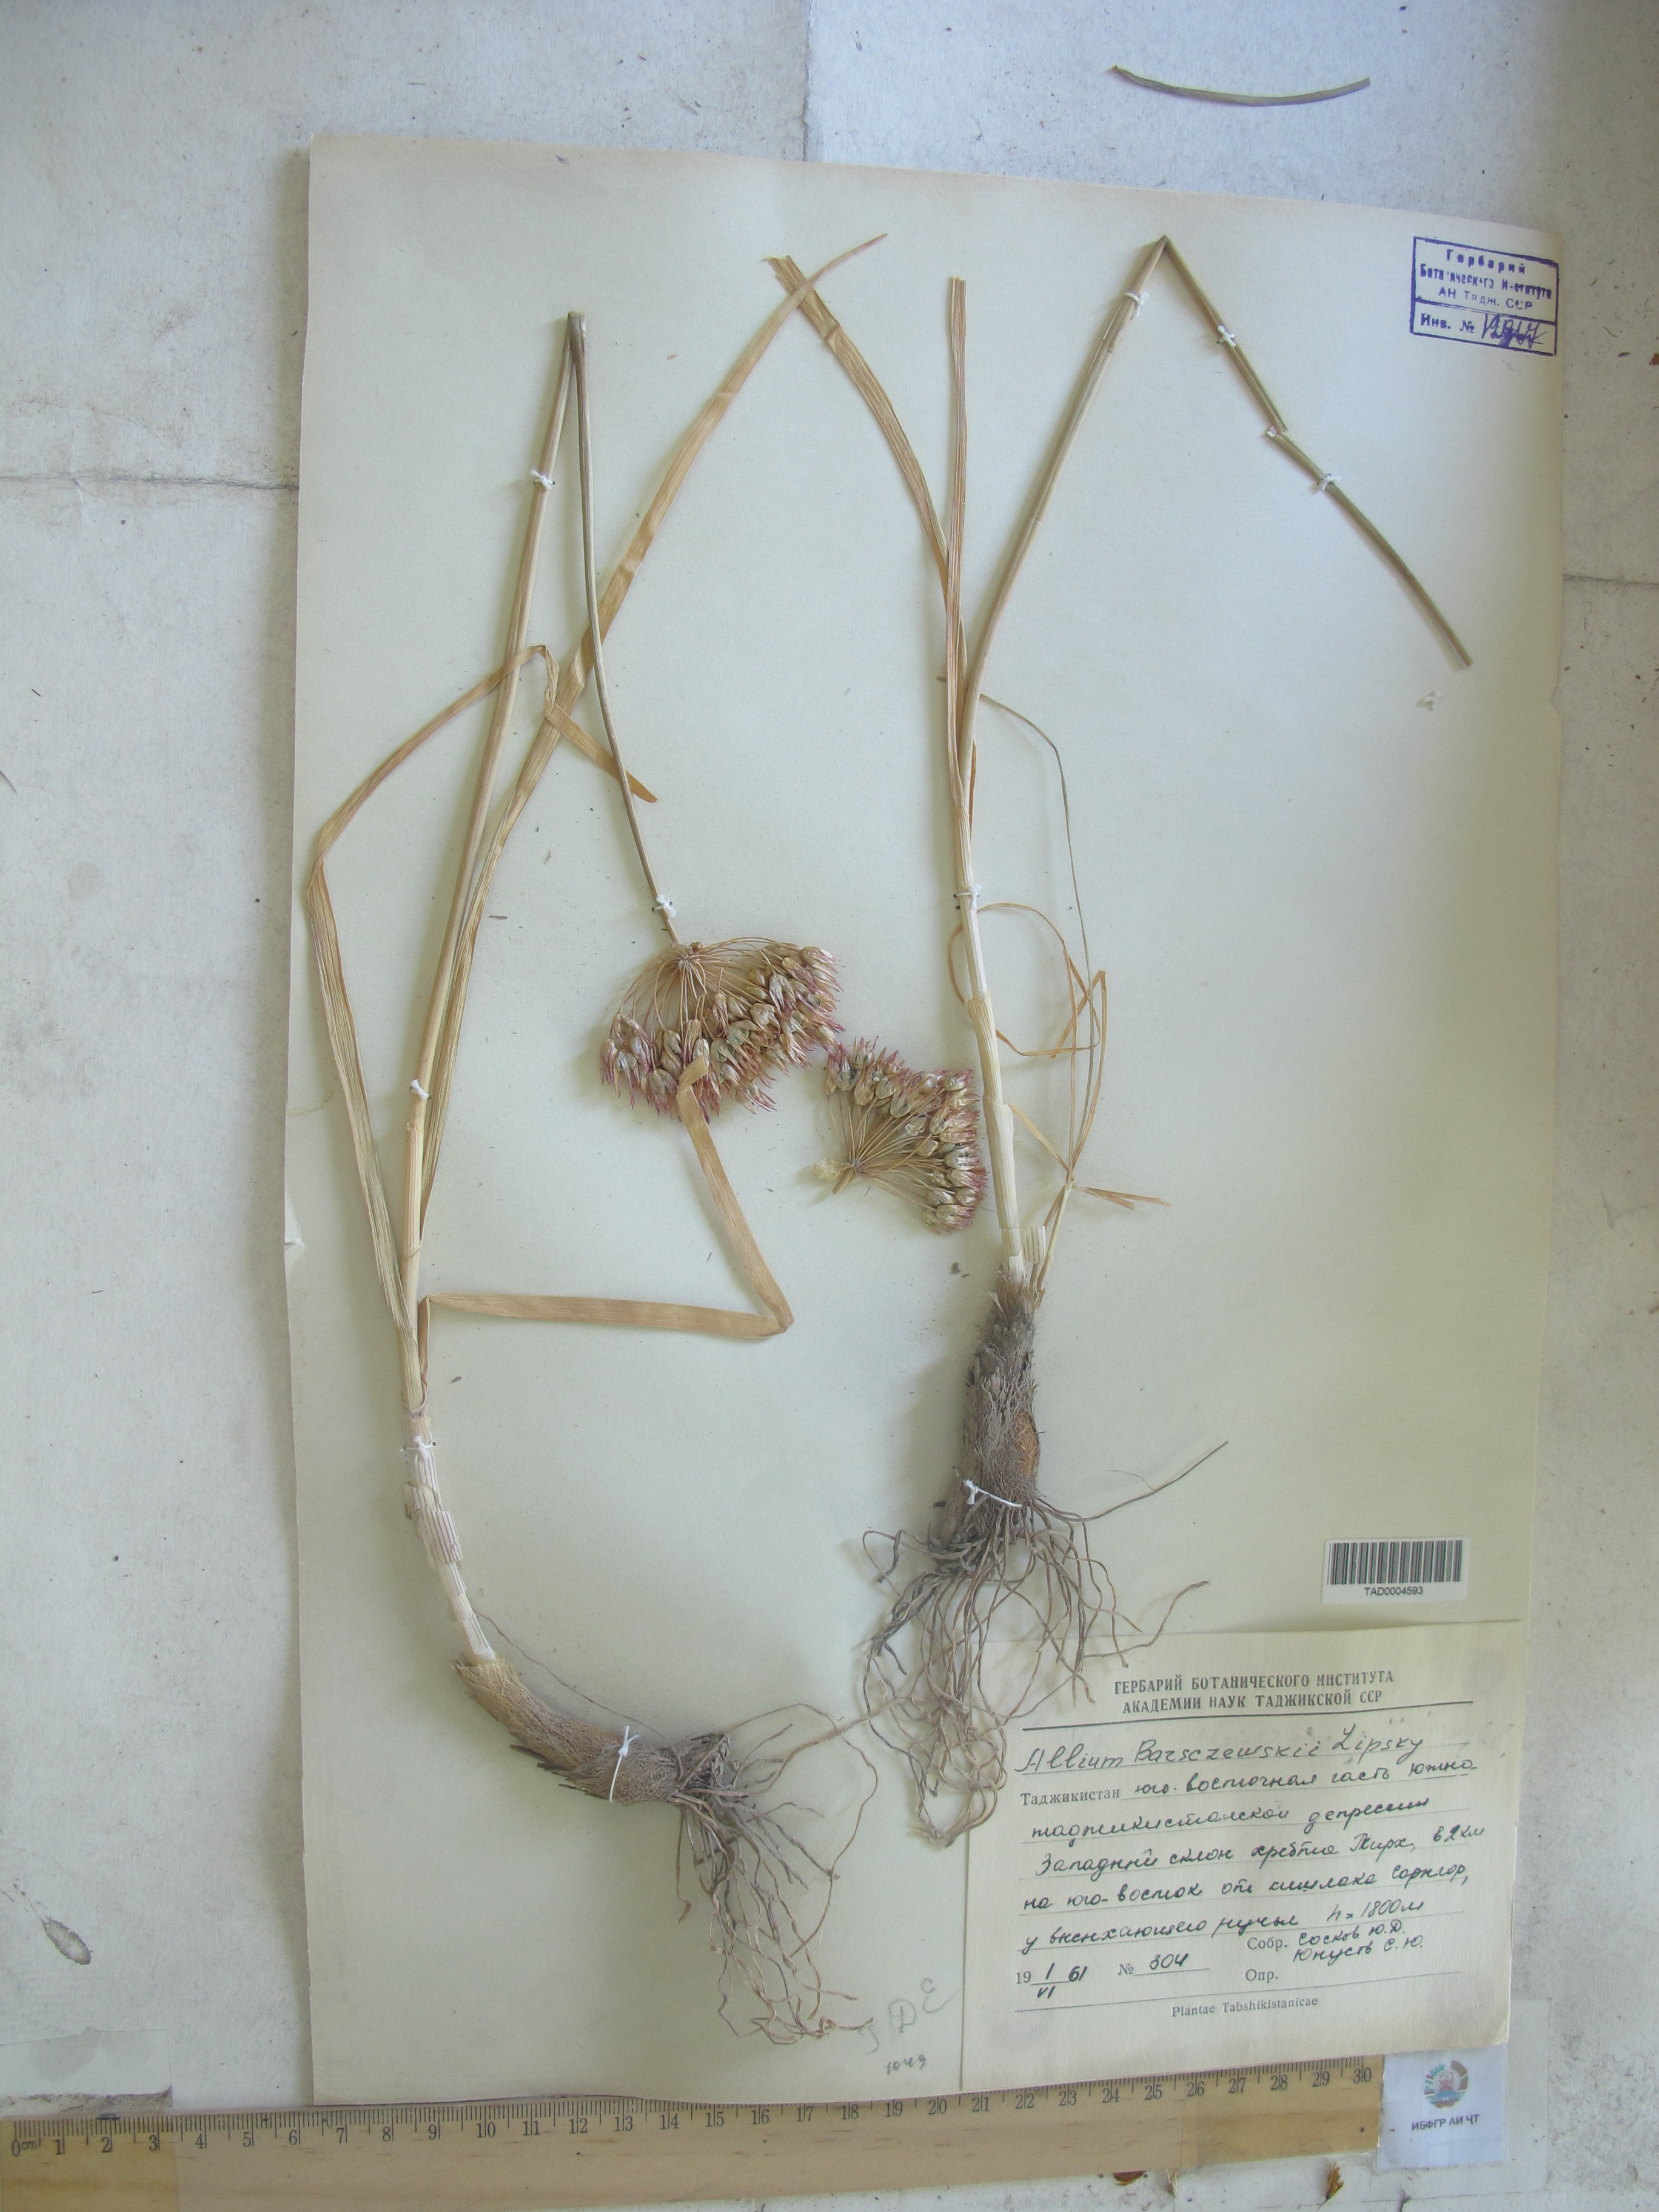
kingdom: Plantae
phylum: Tracheophyta
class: Liliopsida
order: Asparagales
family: Amaryllidaceae
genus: Allium
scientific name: Allium barsczewskii
